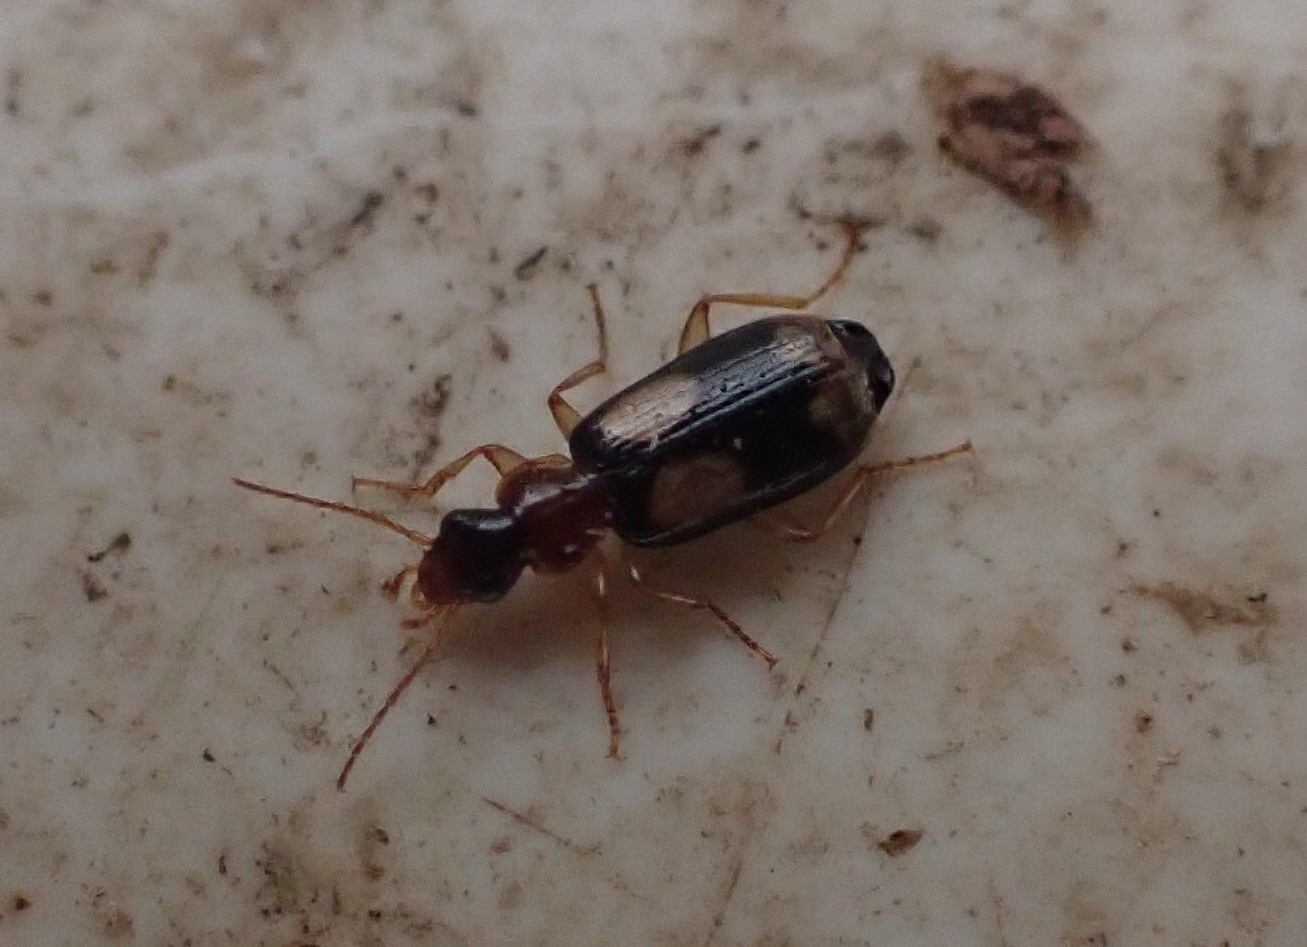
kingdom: Animalia
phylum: Arthropoda
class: Insecta
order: Coleoptera
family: Carabidae
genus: Dromius
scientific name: Dromius quadrimaculatus
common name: Fireplettet barkløber
